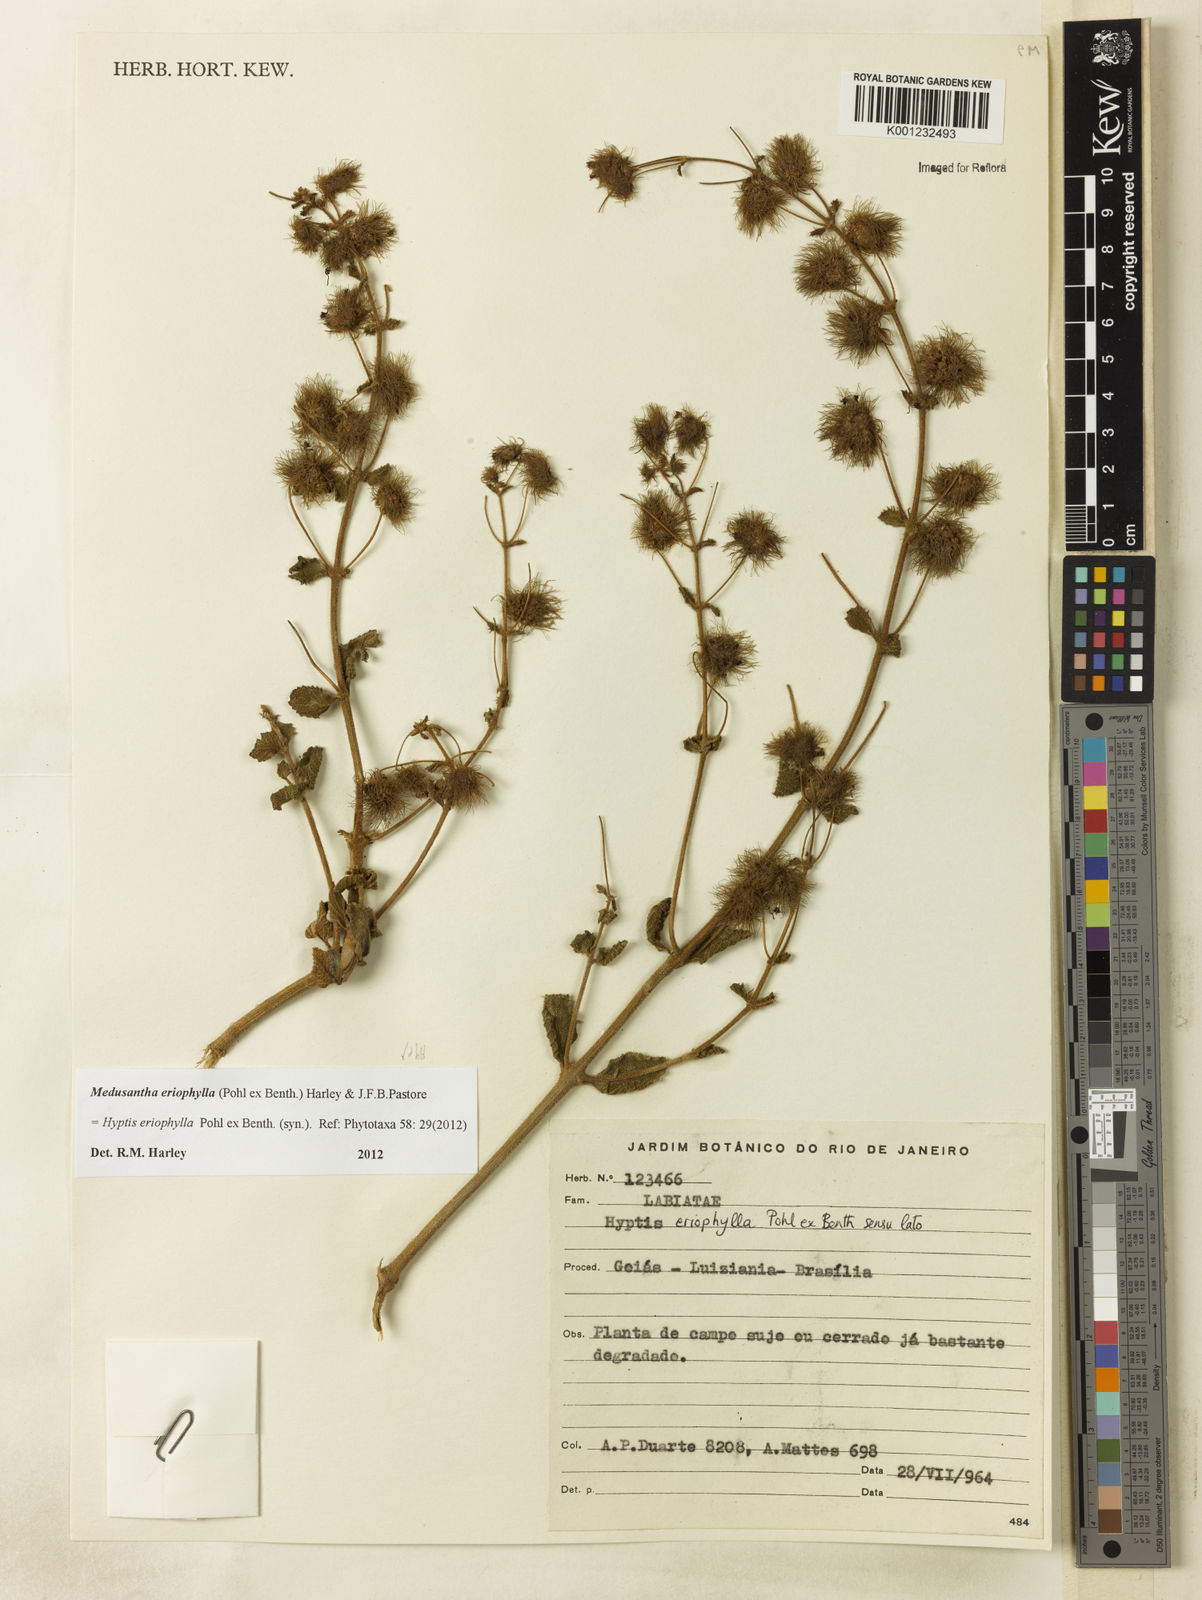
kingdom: Plantae
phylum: Tracheophyta
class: Magnoliopsida
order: Lamiales
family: Lamiaceae
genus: Medusantha
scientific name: Medusantha eriophylla
